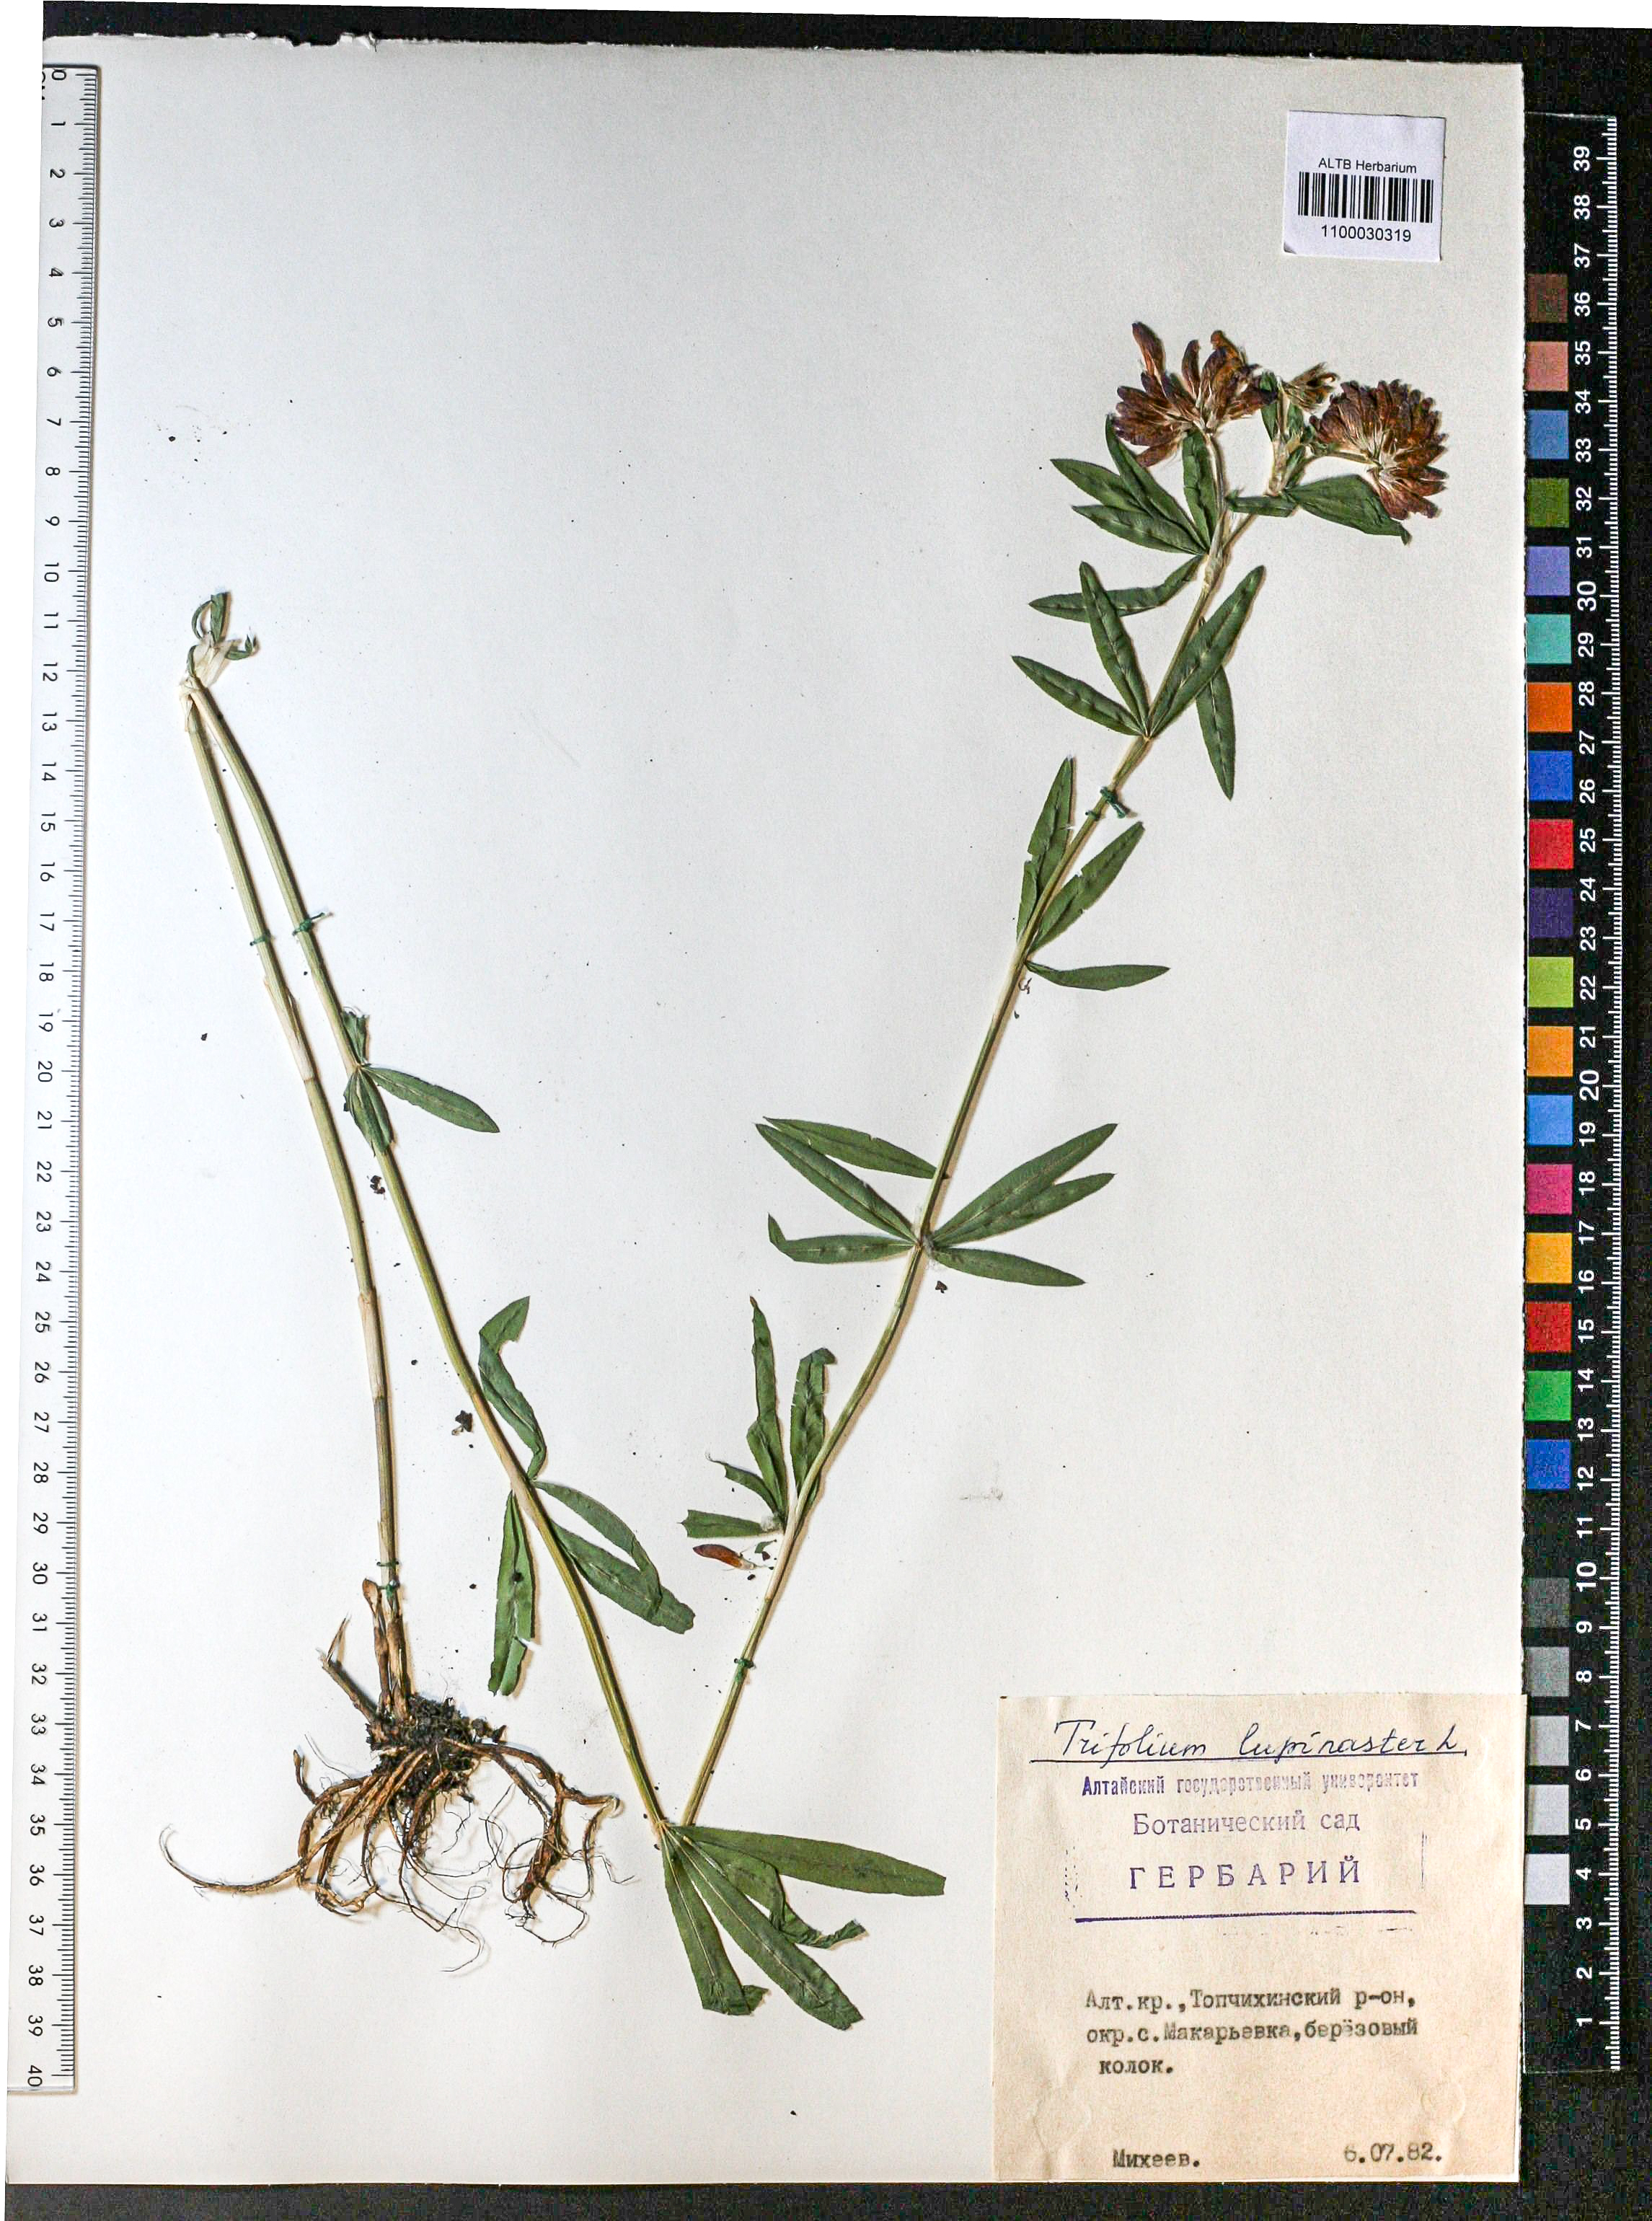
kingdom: Plantae
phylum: Tracheophyta
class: Magnoliopsida
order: Fabales
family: Fabaceae
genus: Trifolium
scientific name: Trifolium lupinaster
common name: Lupine clover
